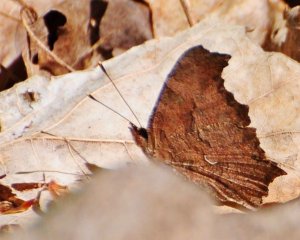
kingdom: Animalia
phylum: Arthropoda
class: Insecta
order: Lepidoptera
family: Nymphalidae
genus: Polygonia
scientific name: Polygonia comma
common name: Eastern Comma
